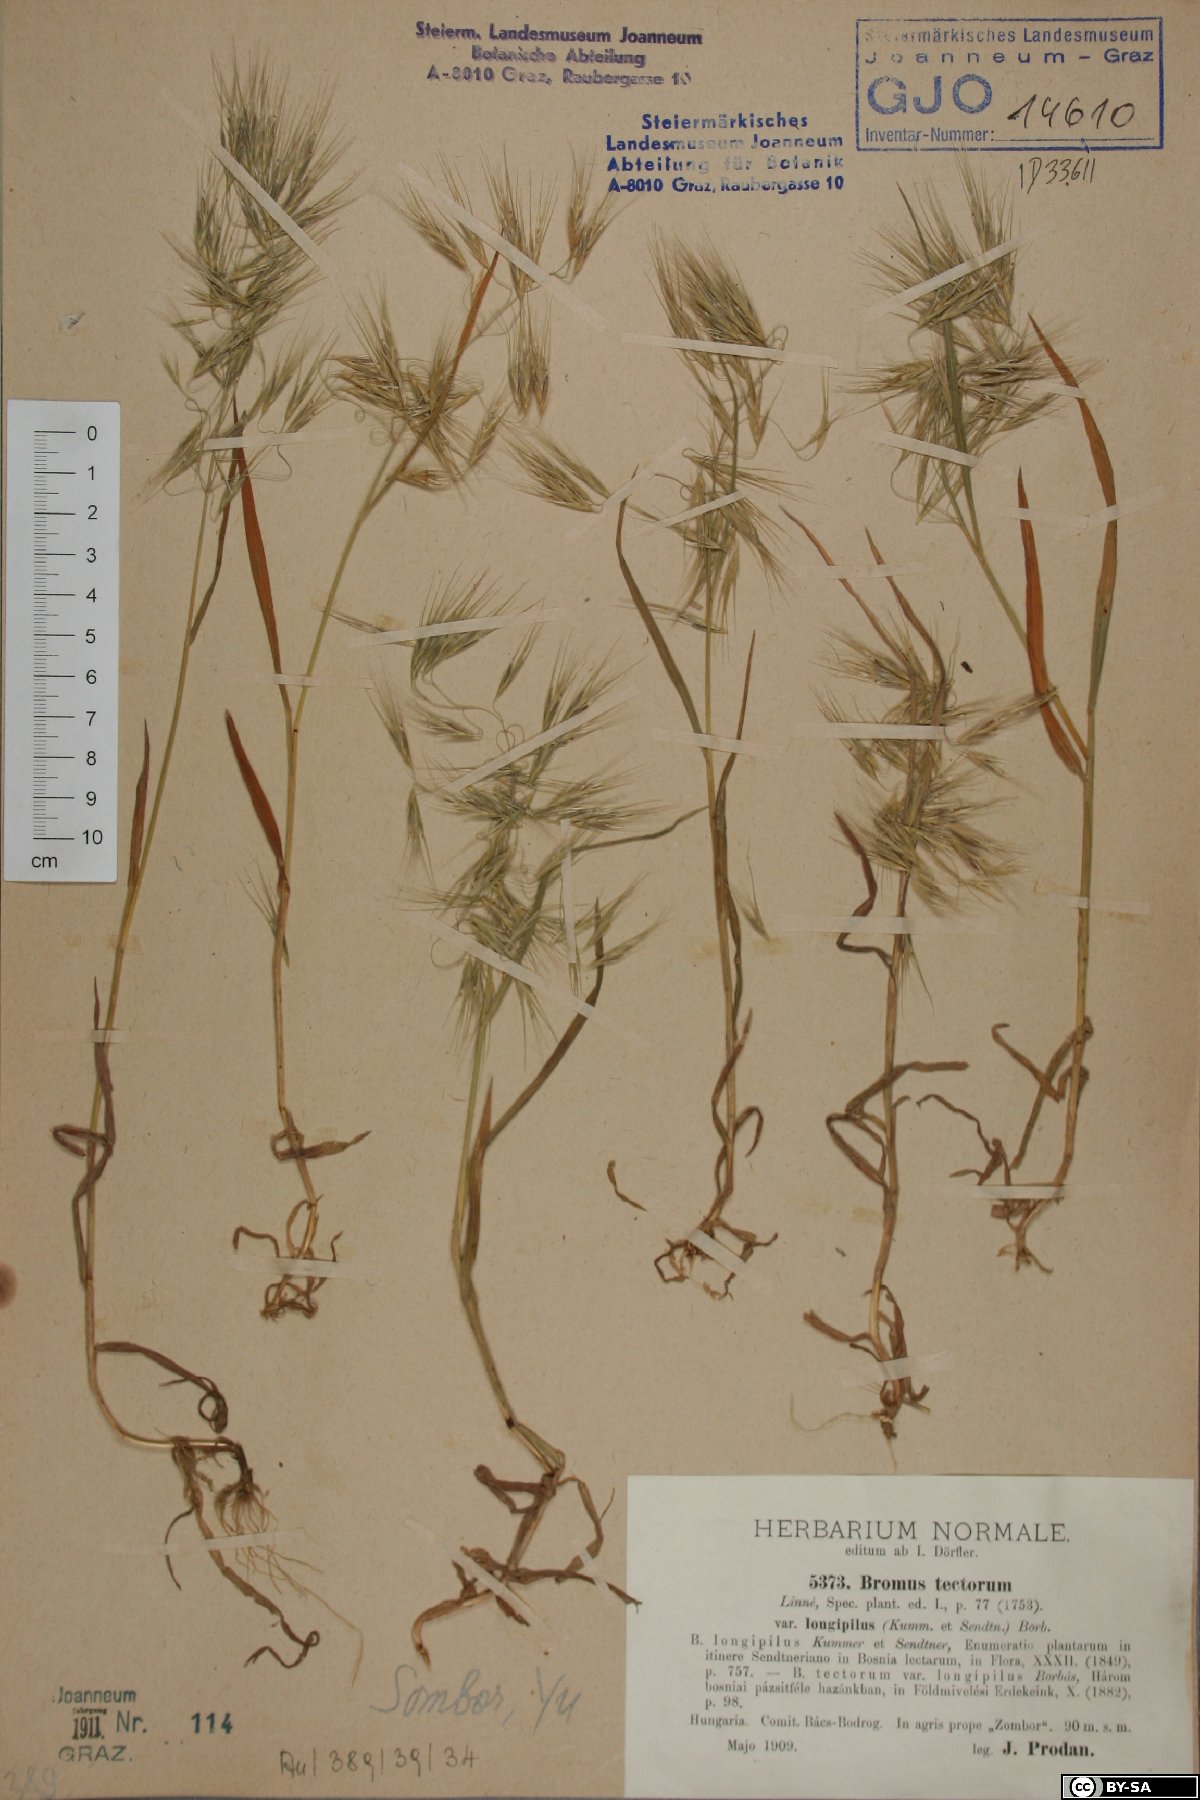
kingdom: Plantae
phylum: Tracheophyta
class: Liliopsida
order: Poales
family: Poaceae
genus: Bromus
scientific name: Bromus tectorum
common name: Cheatgrass
